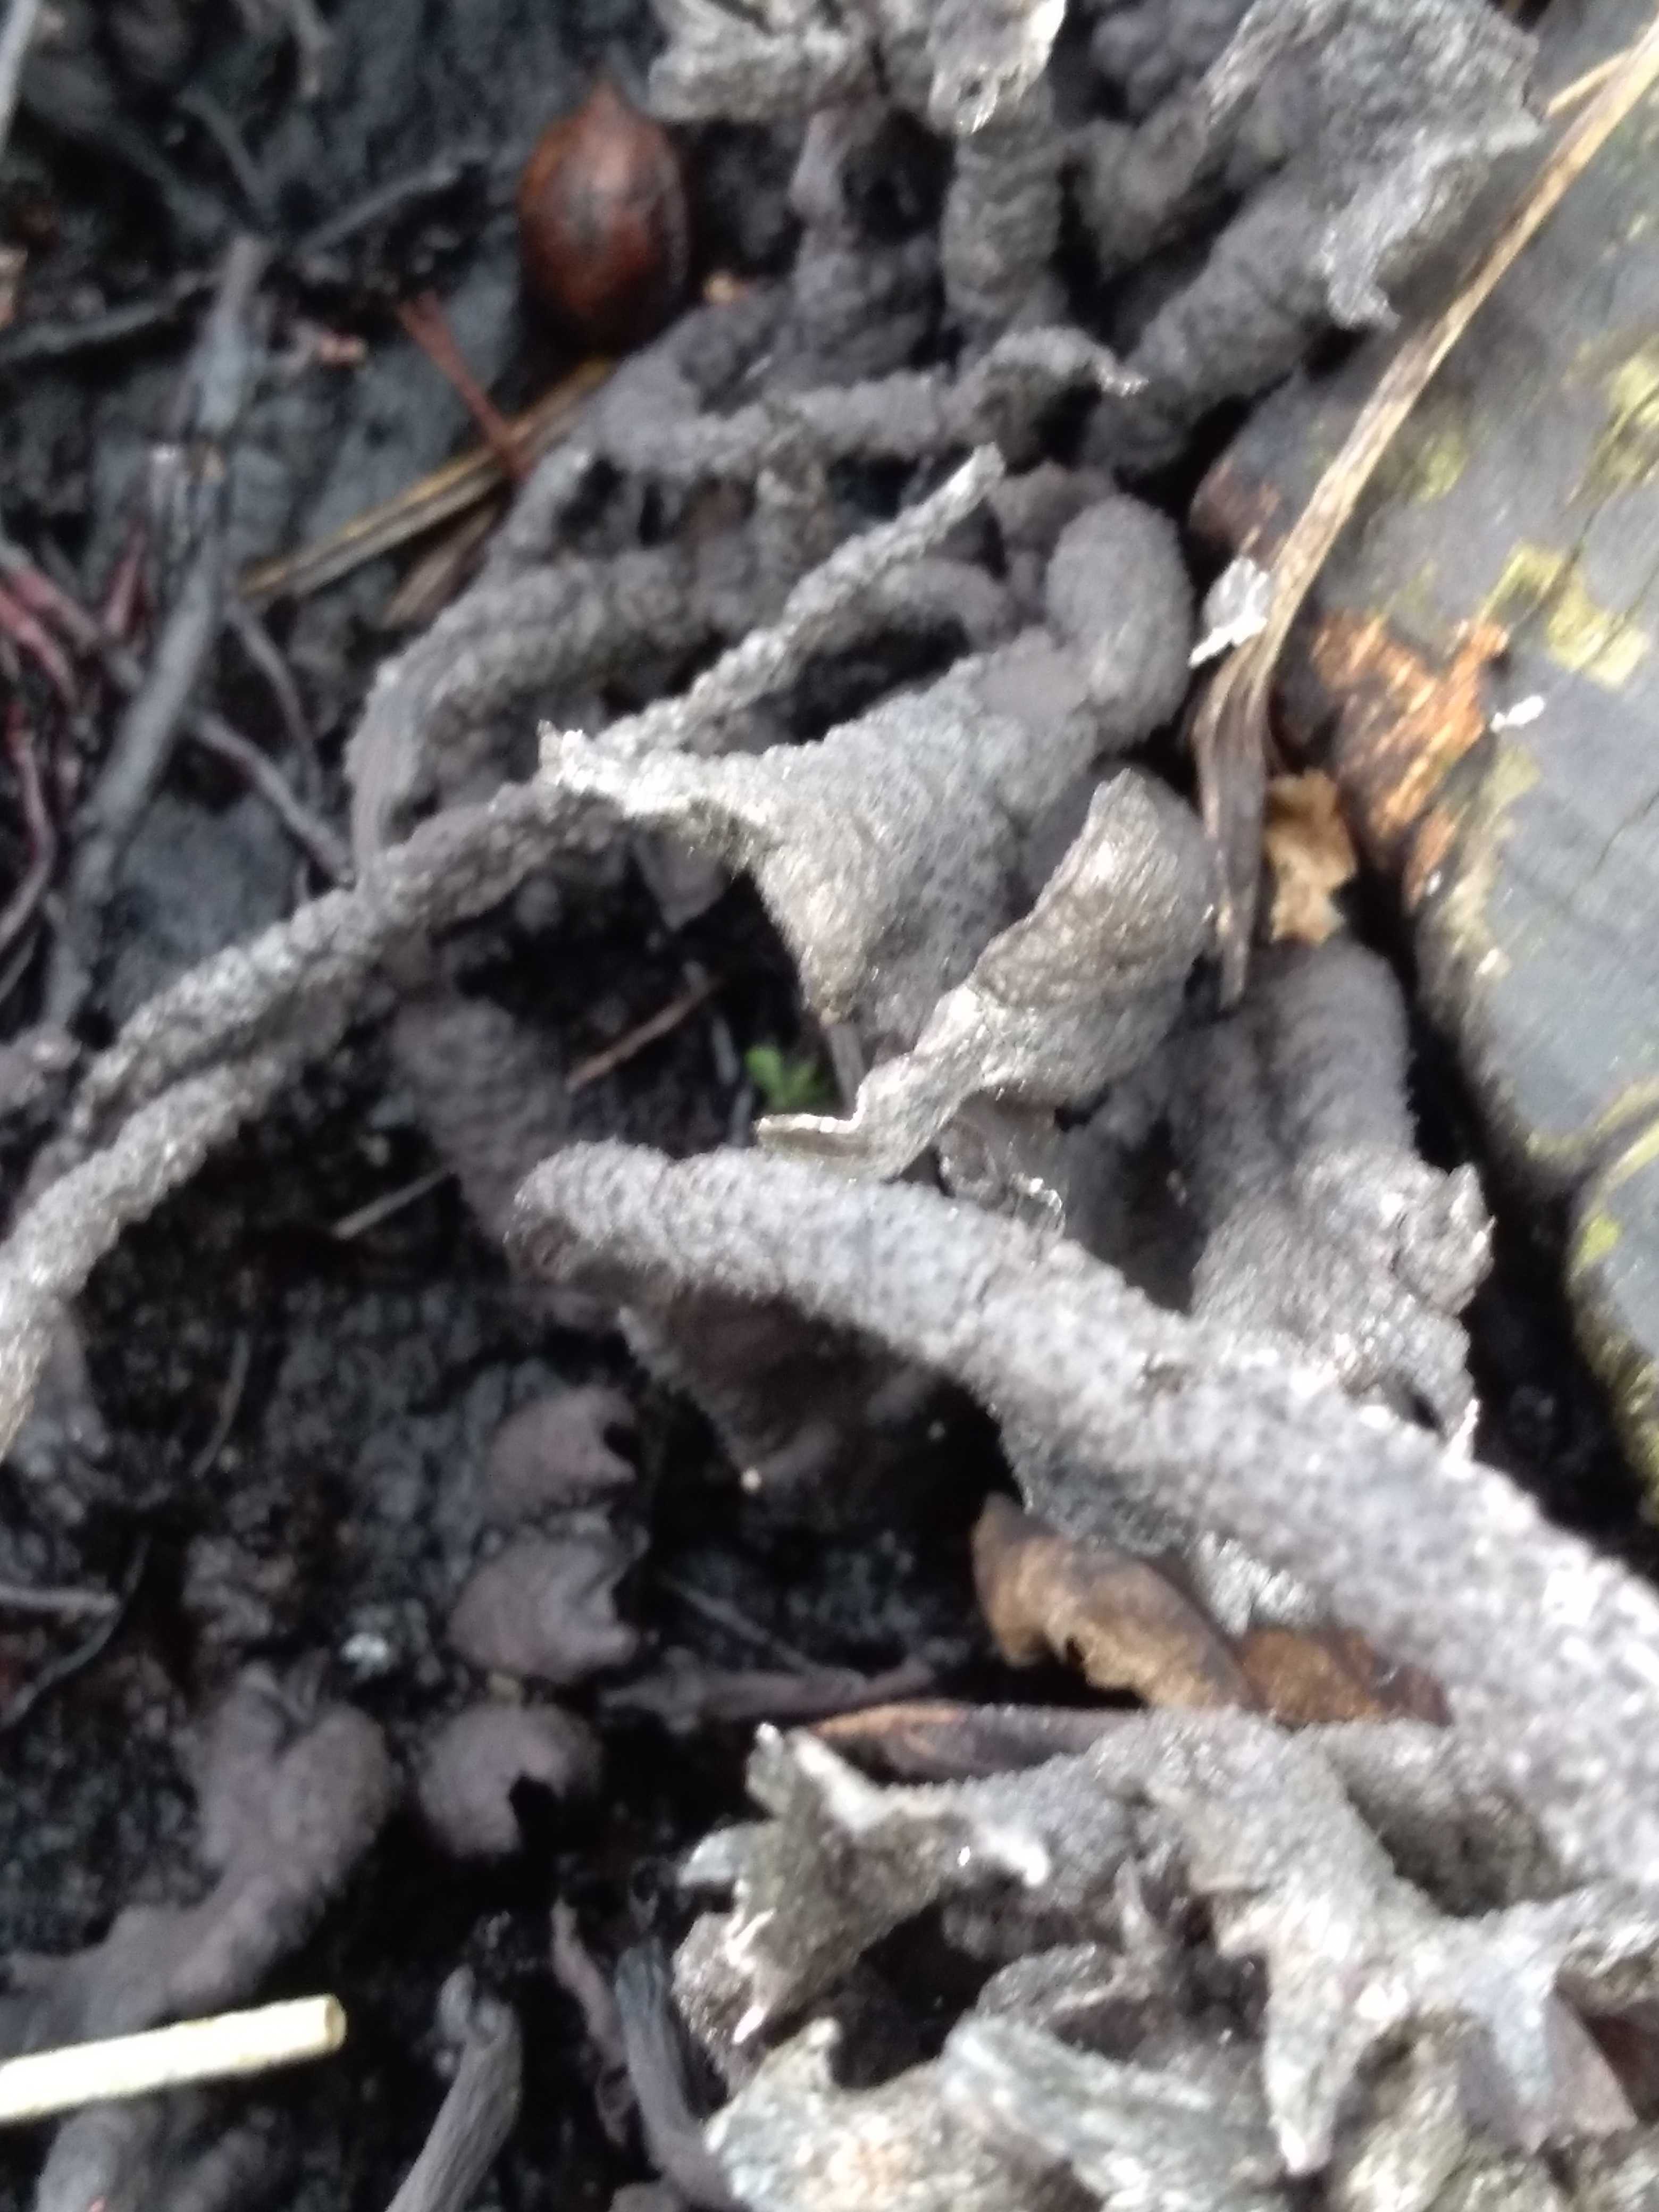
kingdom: Fungi
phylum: Ascomycota
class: Sordariomycetes
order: Xylariales
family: Xylariaceae
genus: Xylaria
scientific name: Xylaria hypoxylon
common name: grenet stødsvamp
